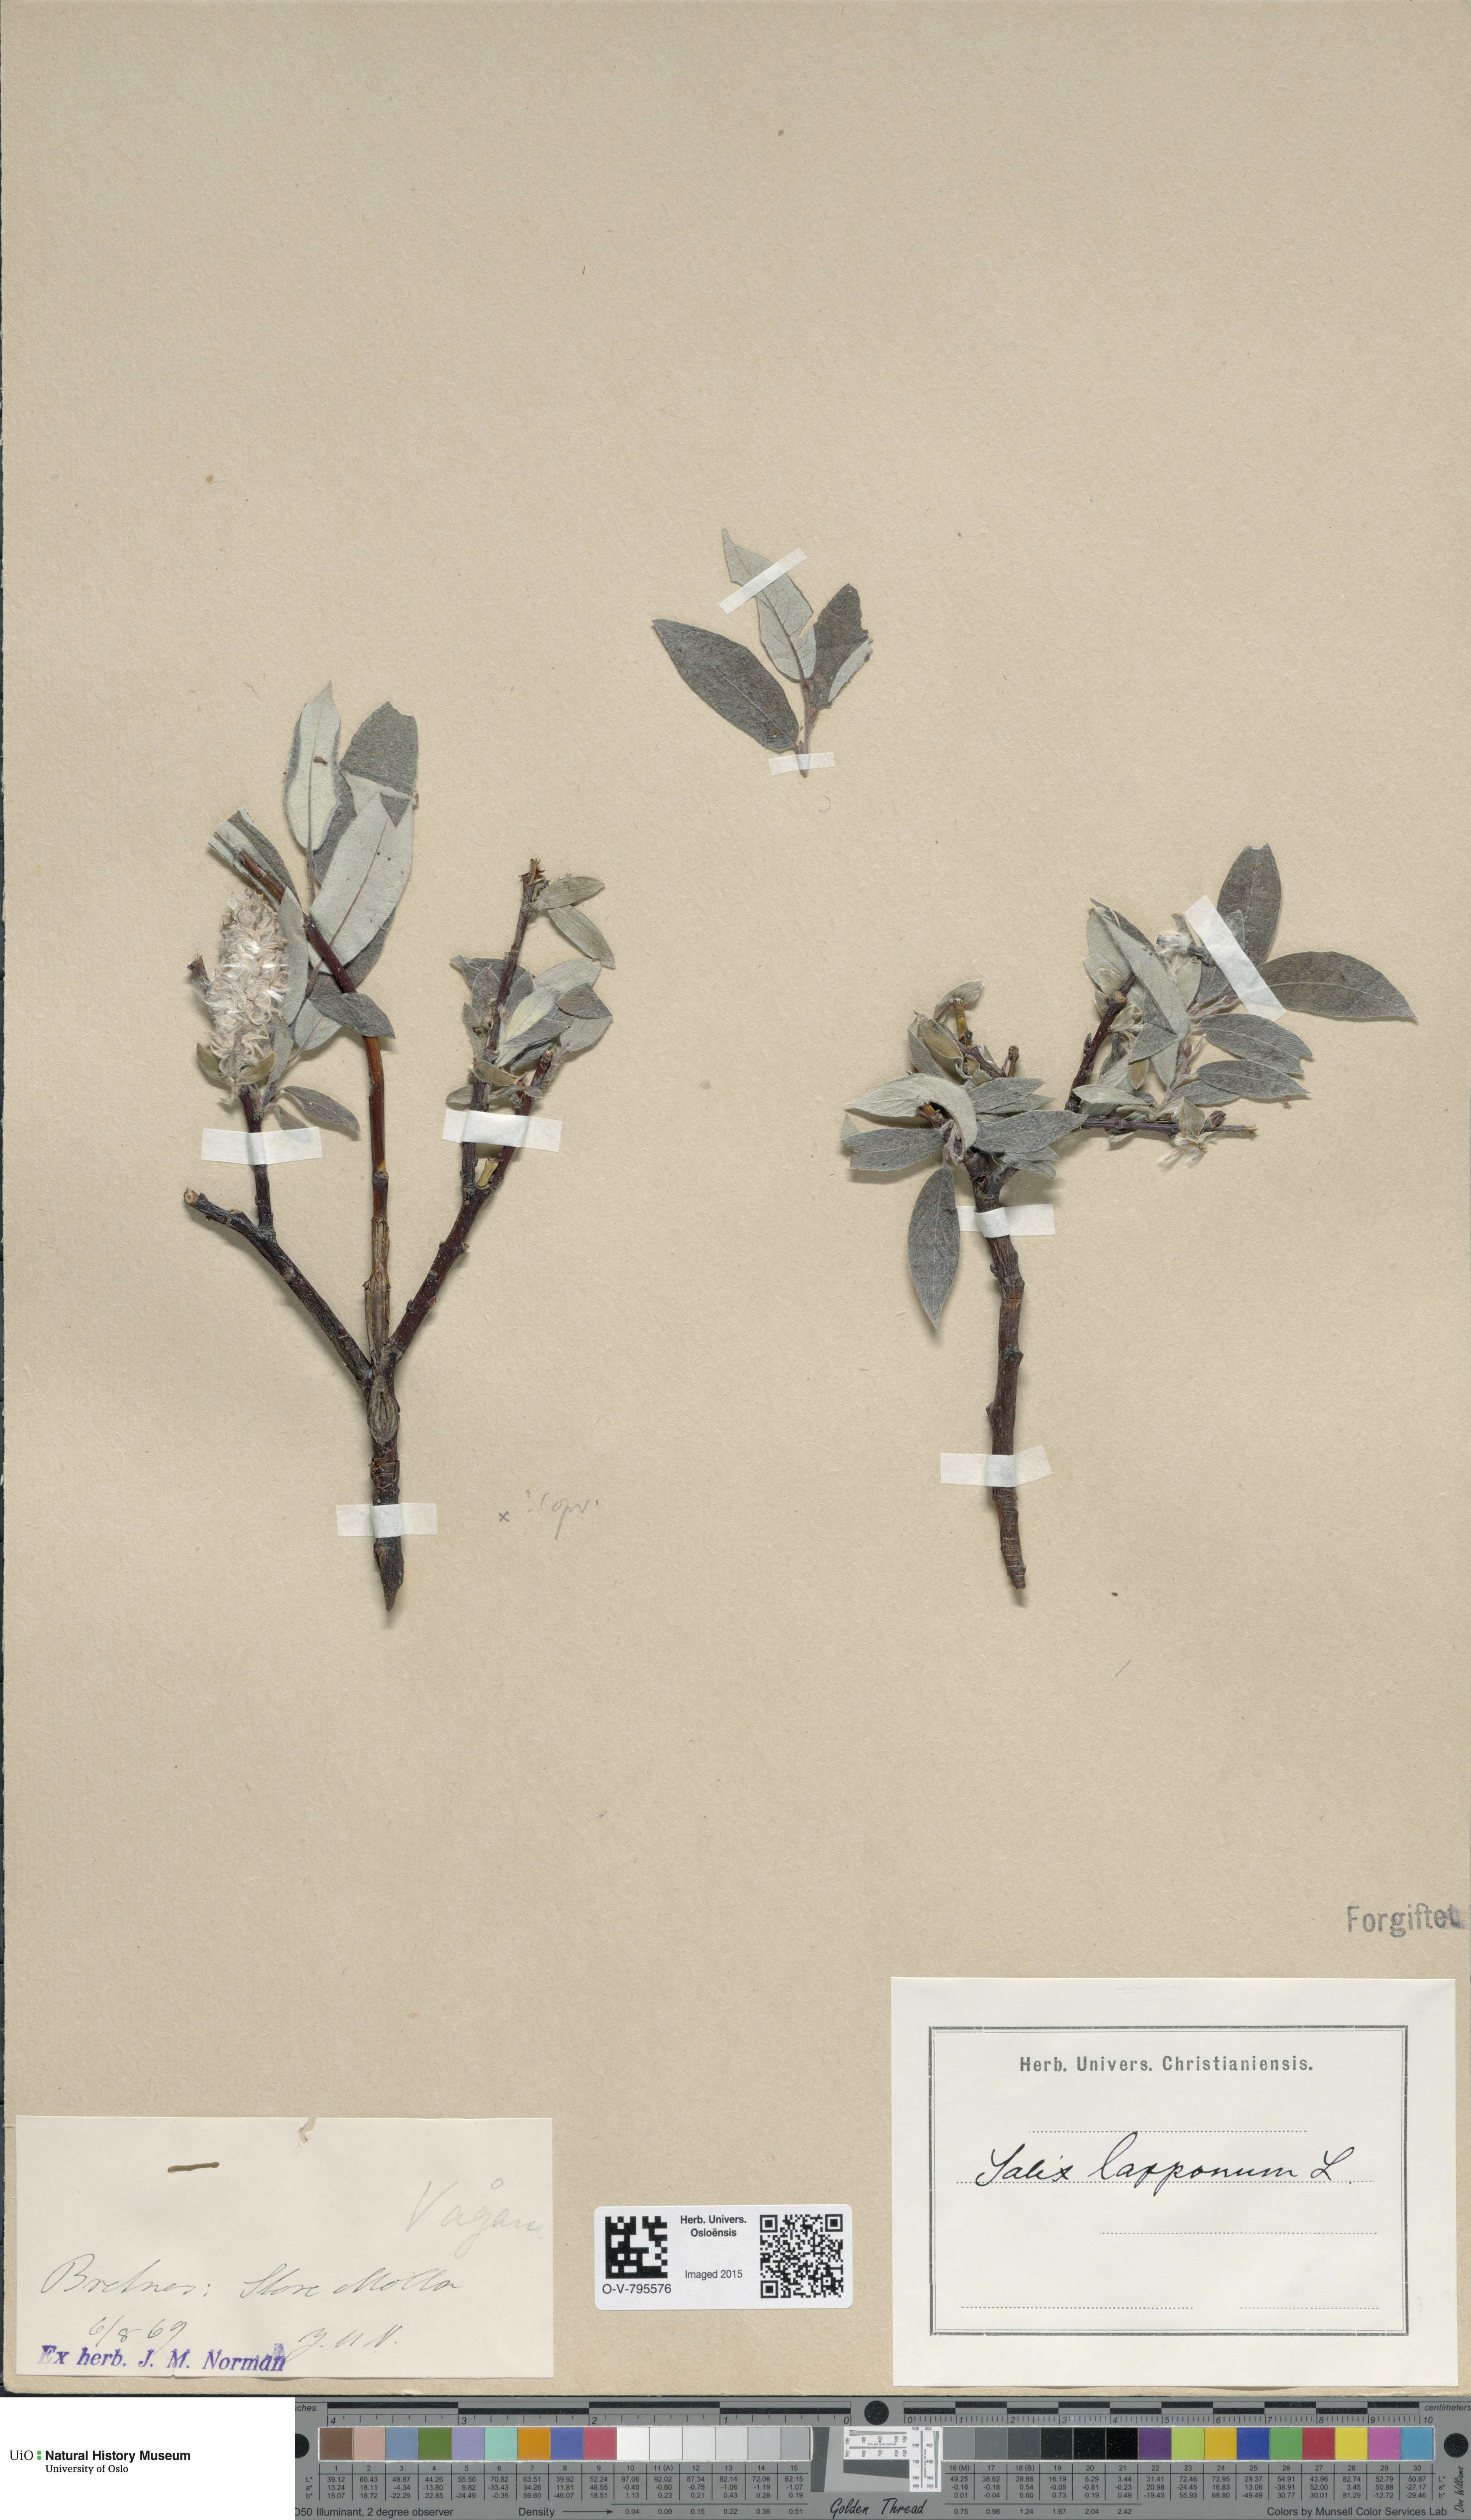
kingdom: Plantae
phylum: Tracheophyta
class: Magnoliopsida
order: Malpighiales
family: Salicaceae
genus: Salix
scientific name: Salix lapponum
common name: Downy willow
